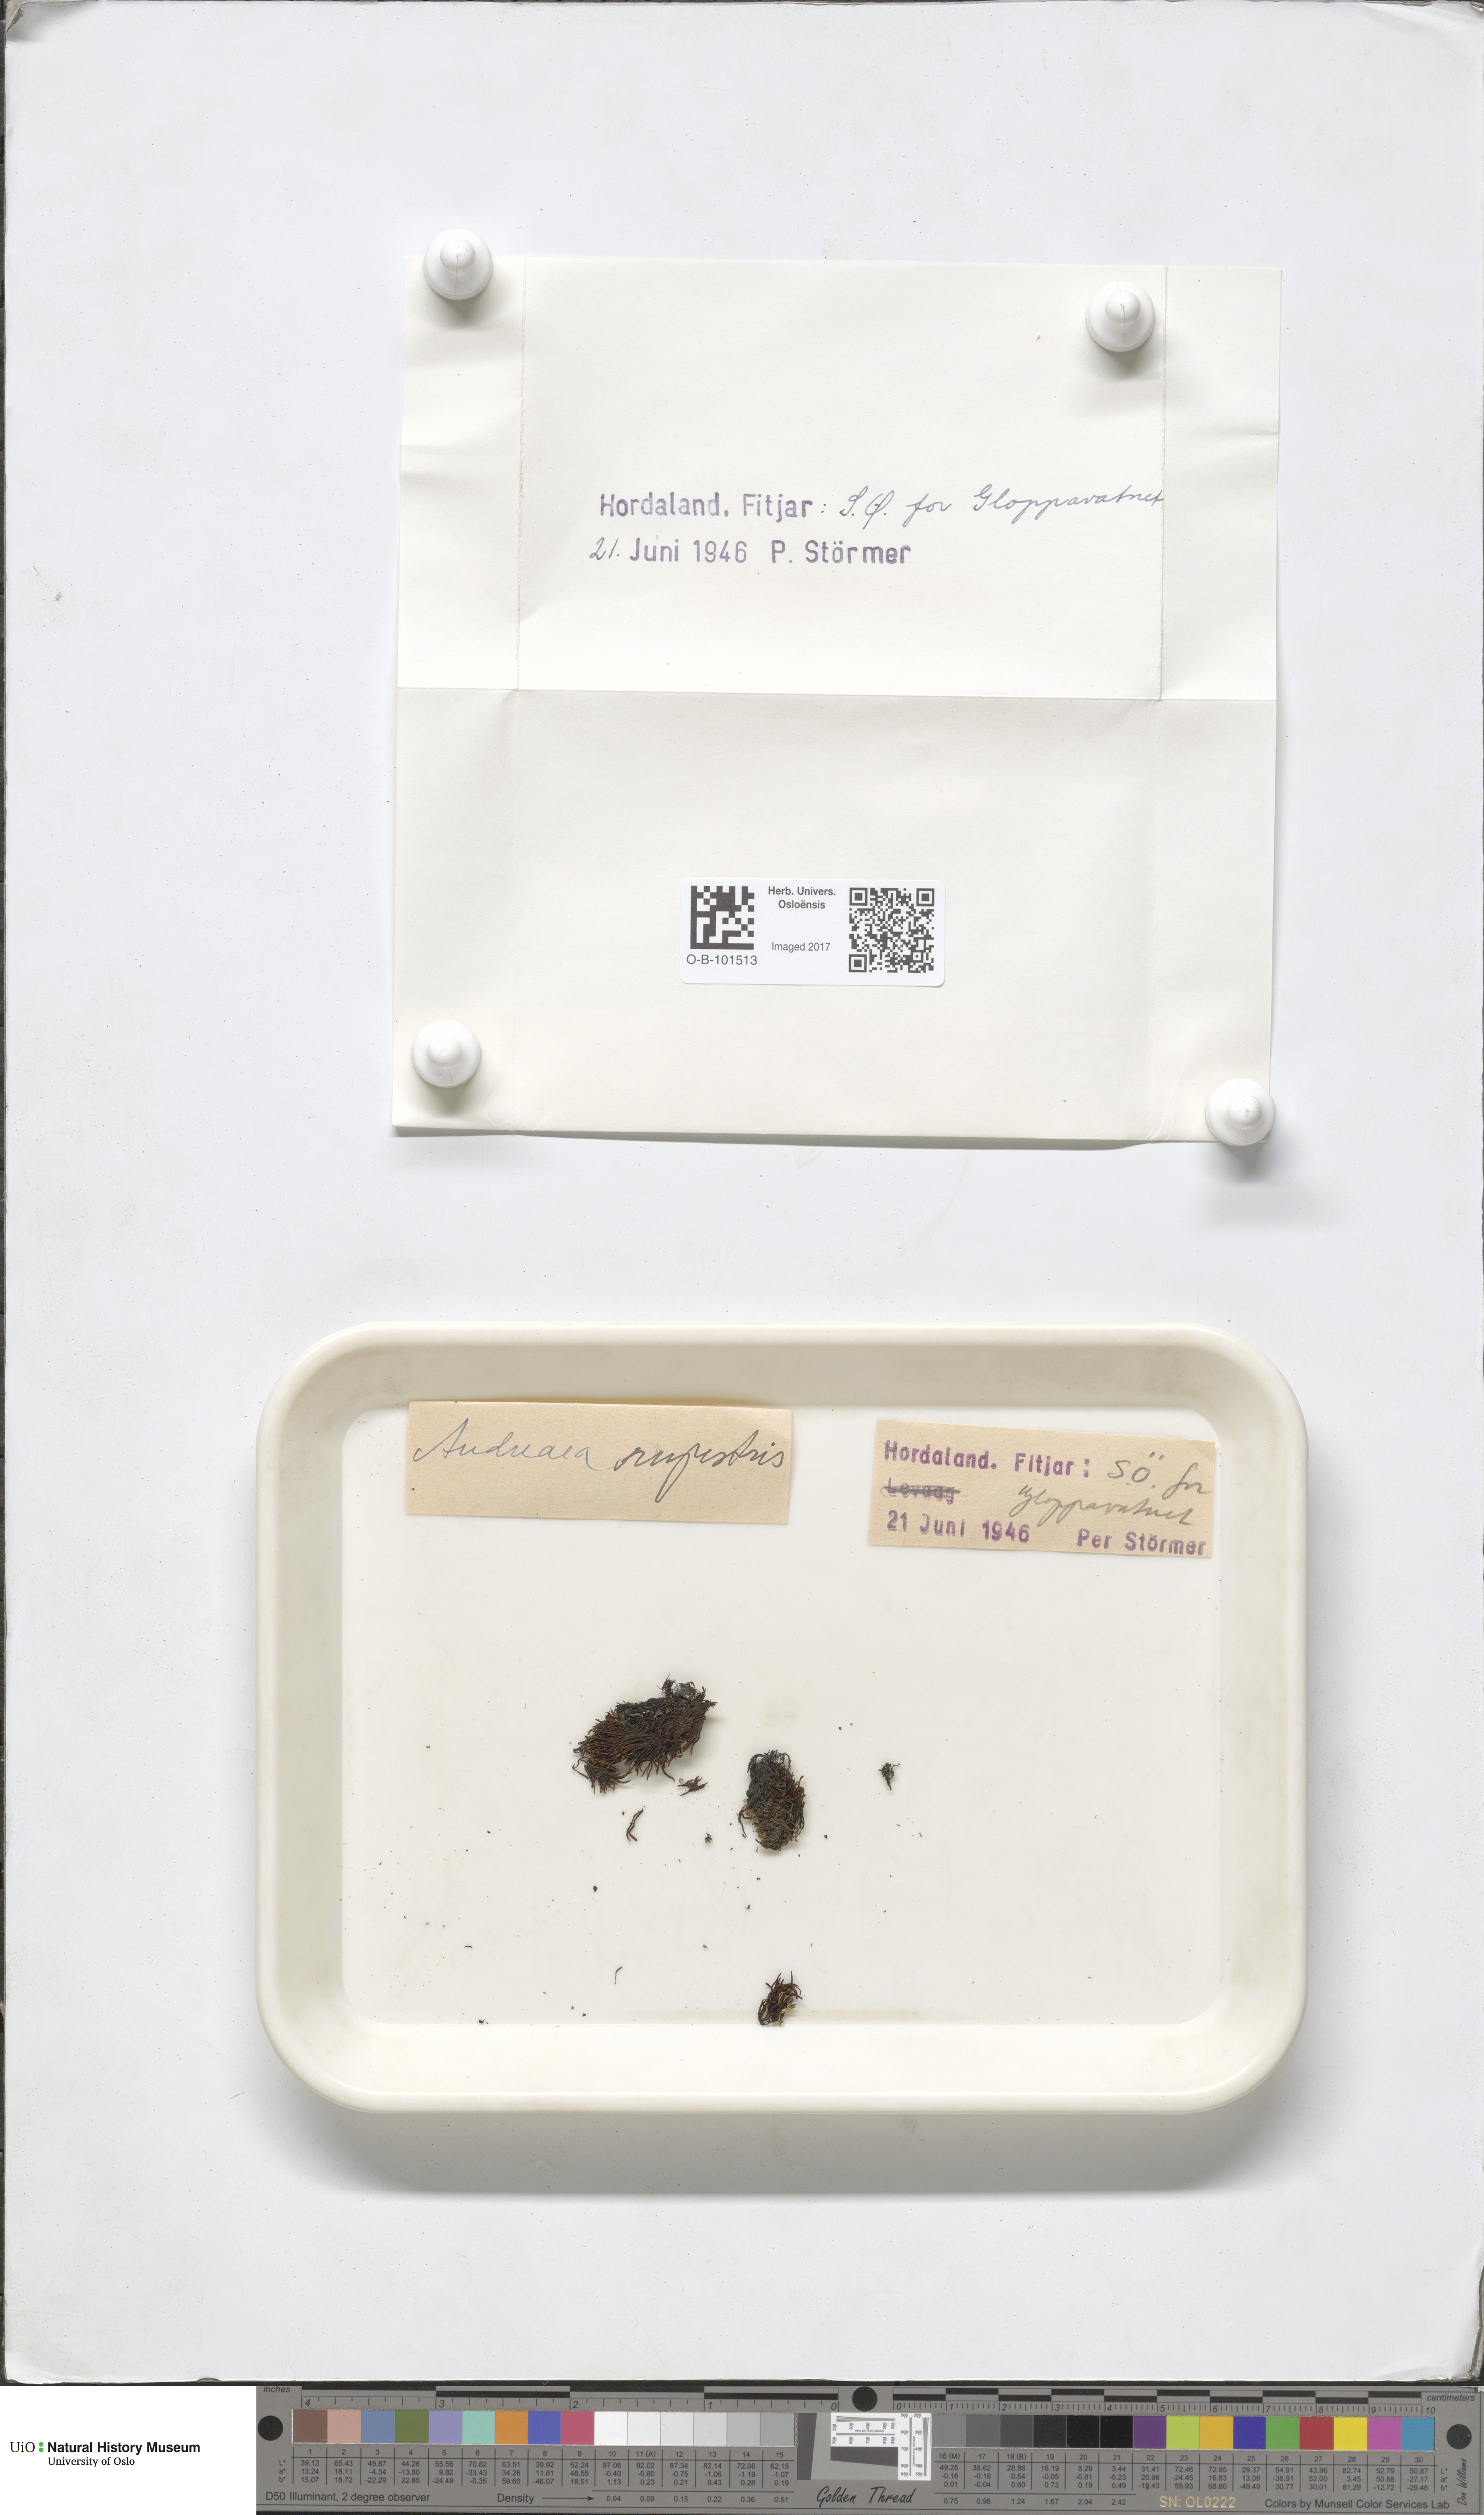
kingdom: Plantae
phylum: Bryophyta
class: Andreaeopsida
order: Andreaeales
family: Andreaeaceae
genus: Andreaea
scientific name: Andreaea rupestris
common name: Black rock moss
